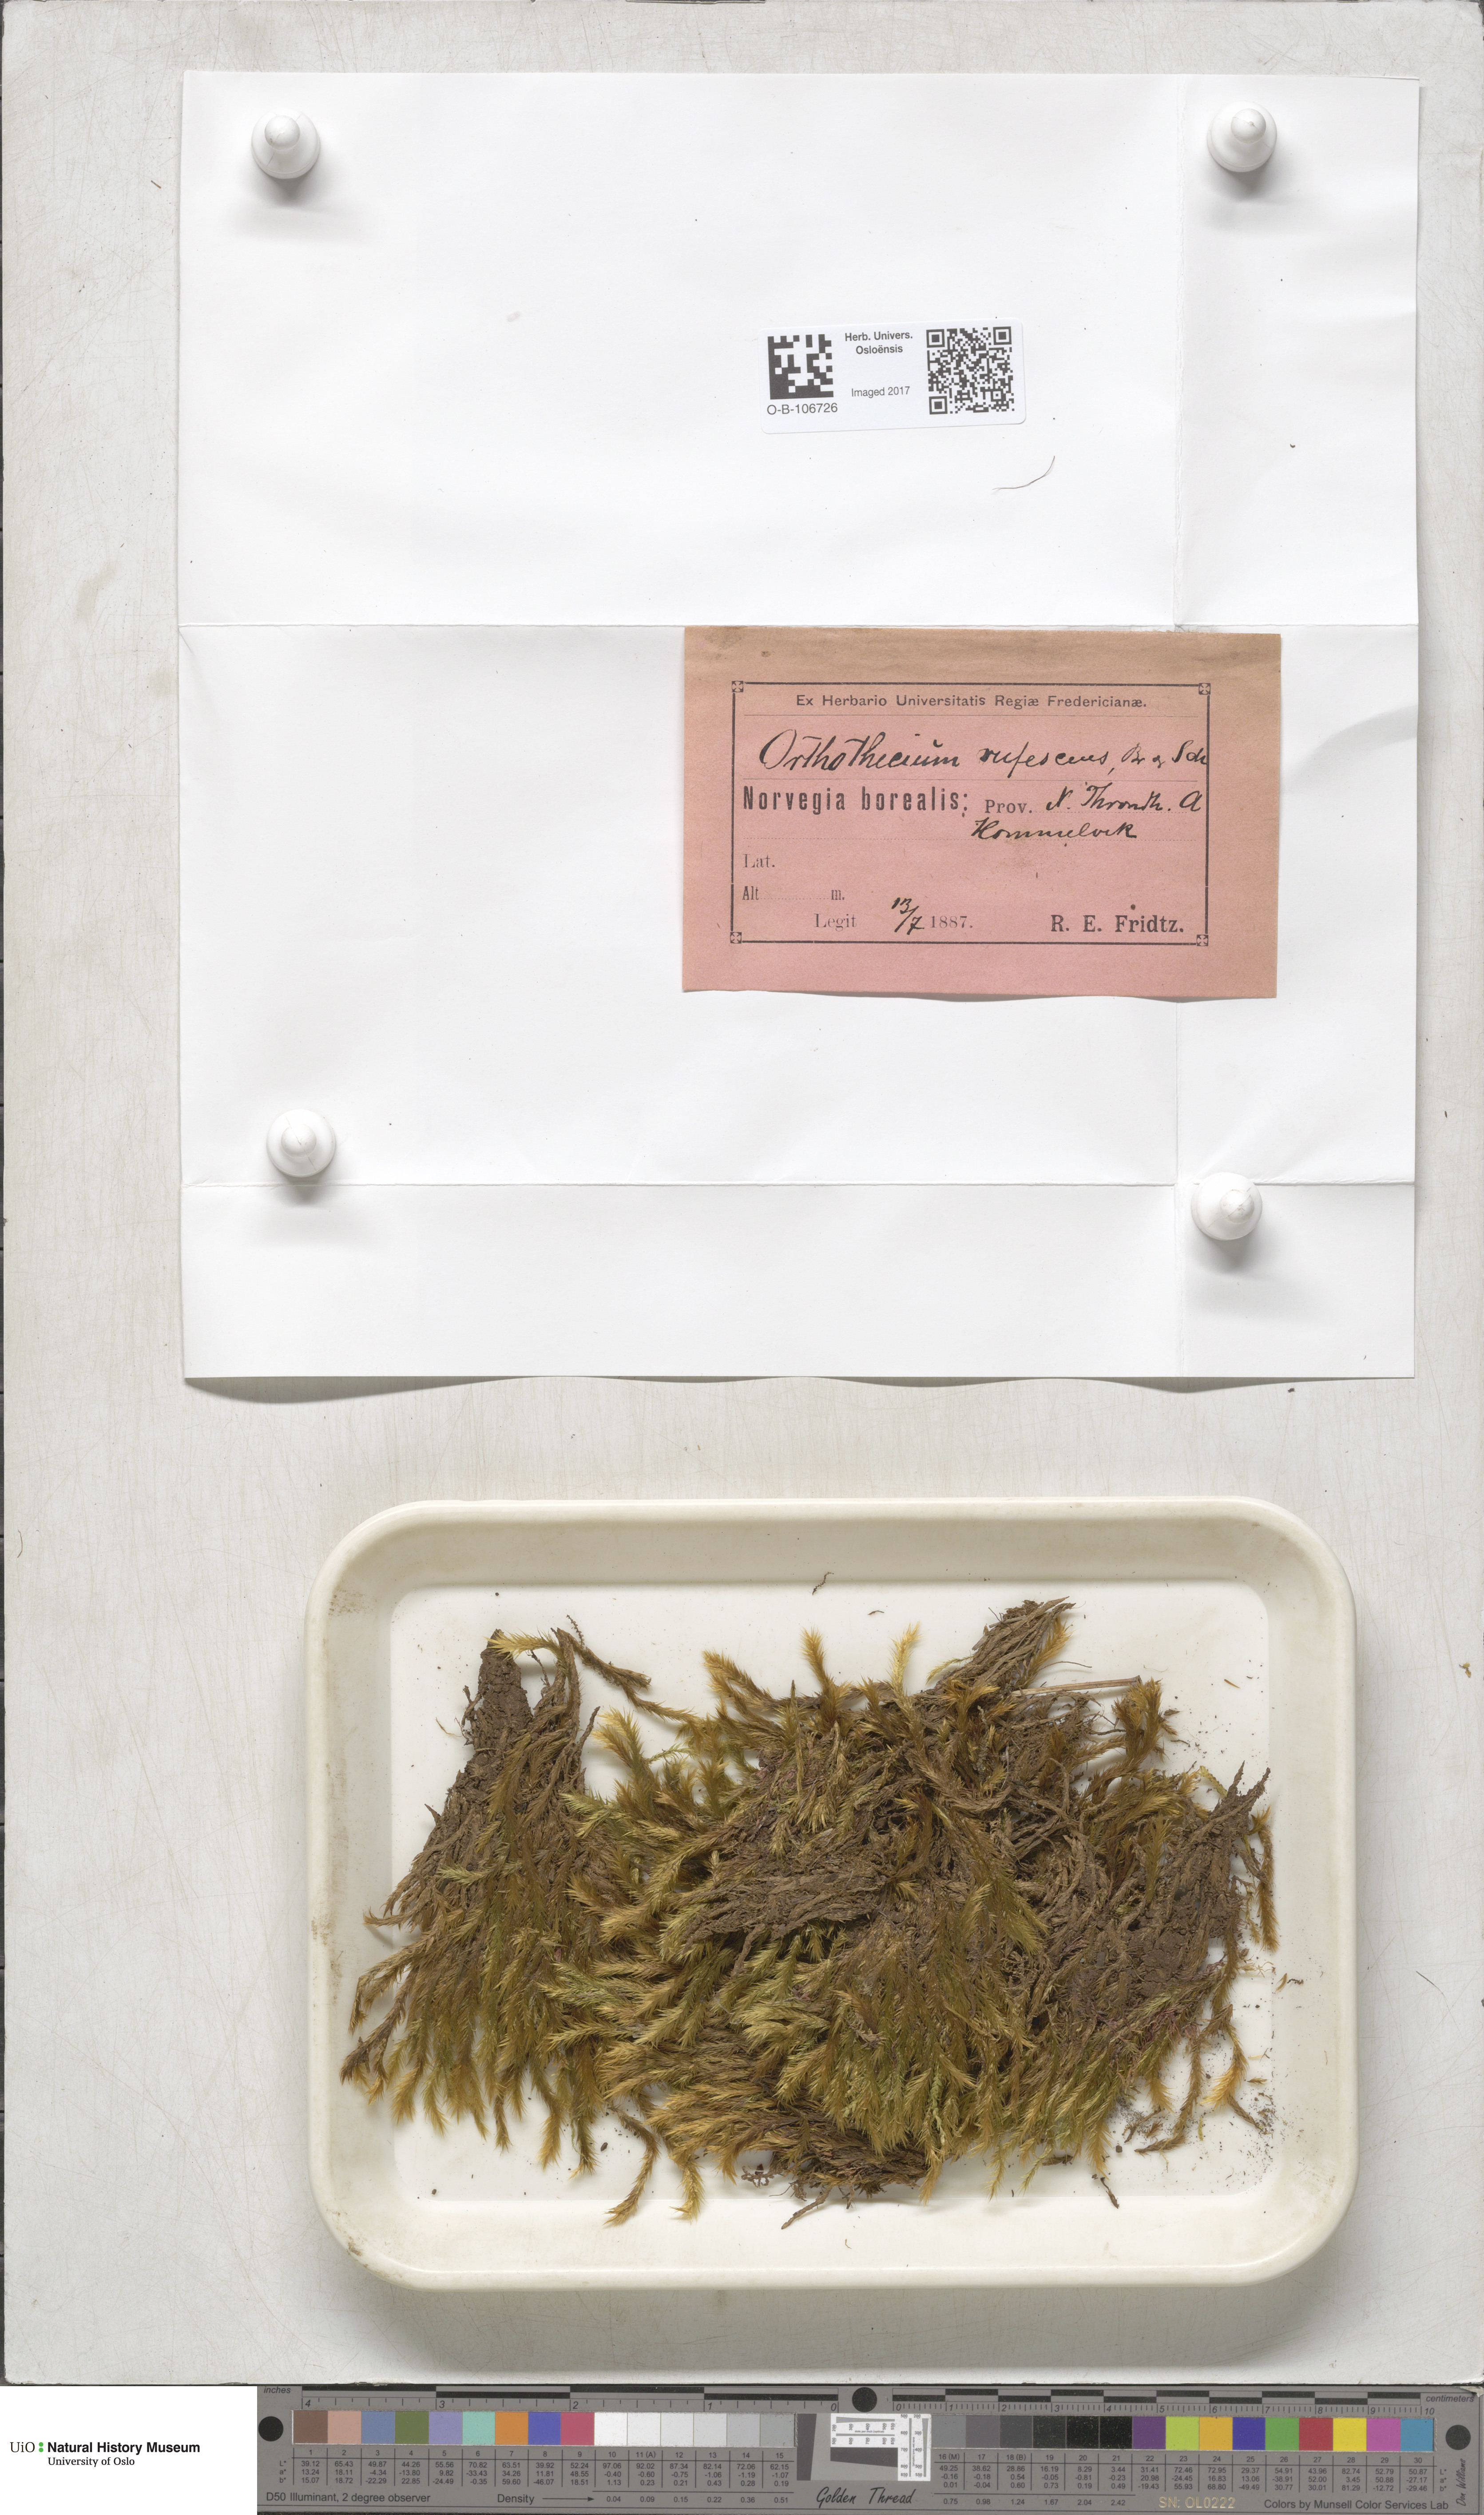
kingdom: Plantae
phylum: Bryophyta
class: Bryopsida
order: Hypnales
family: Plagiotheciaceae
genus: Orthothecium
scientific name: Orthothecium rufescens
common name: Red leskea
